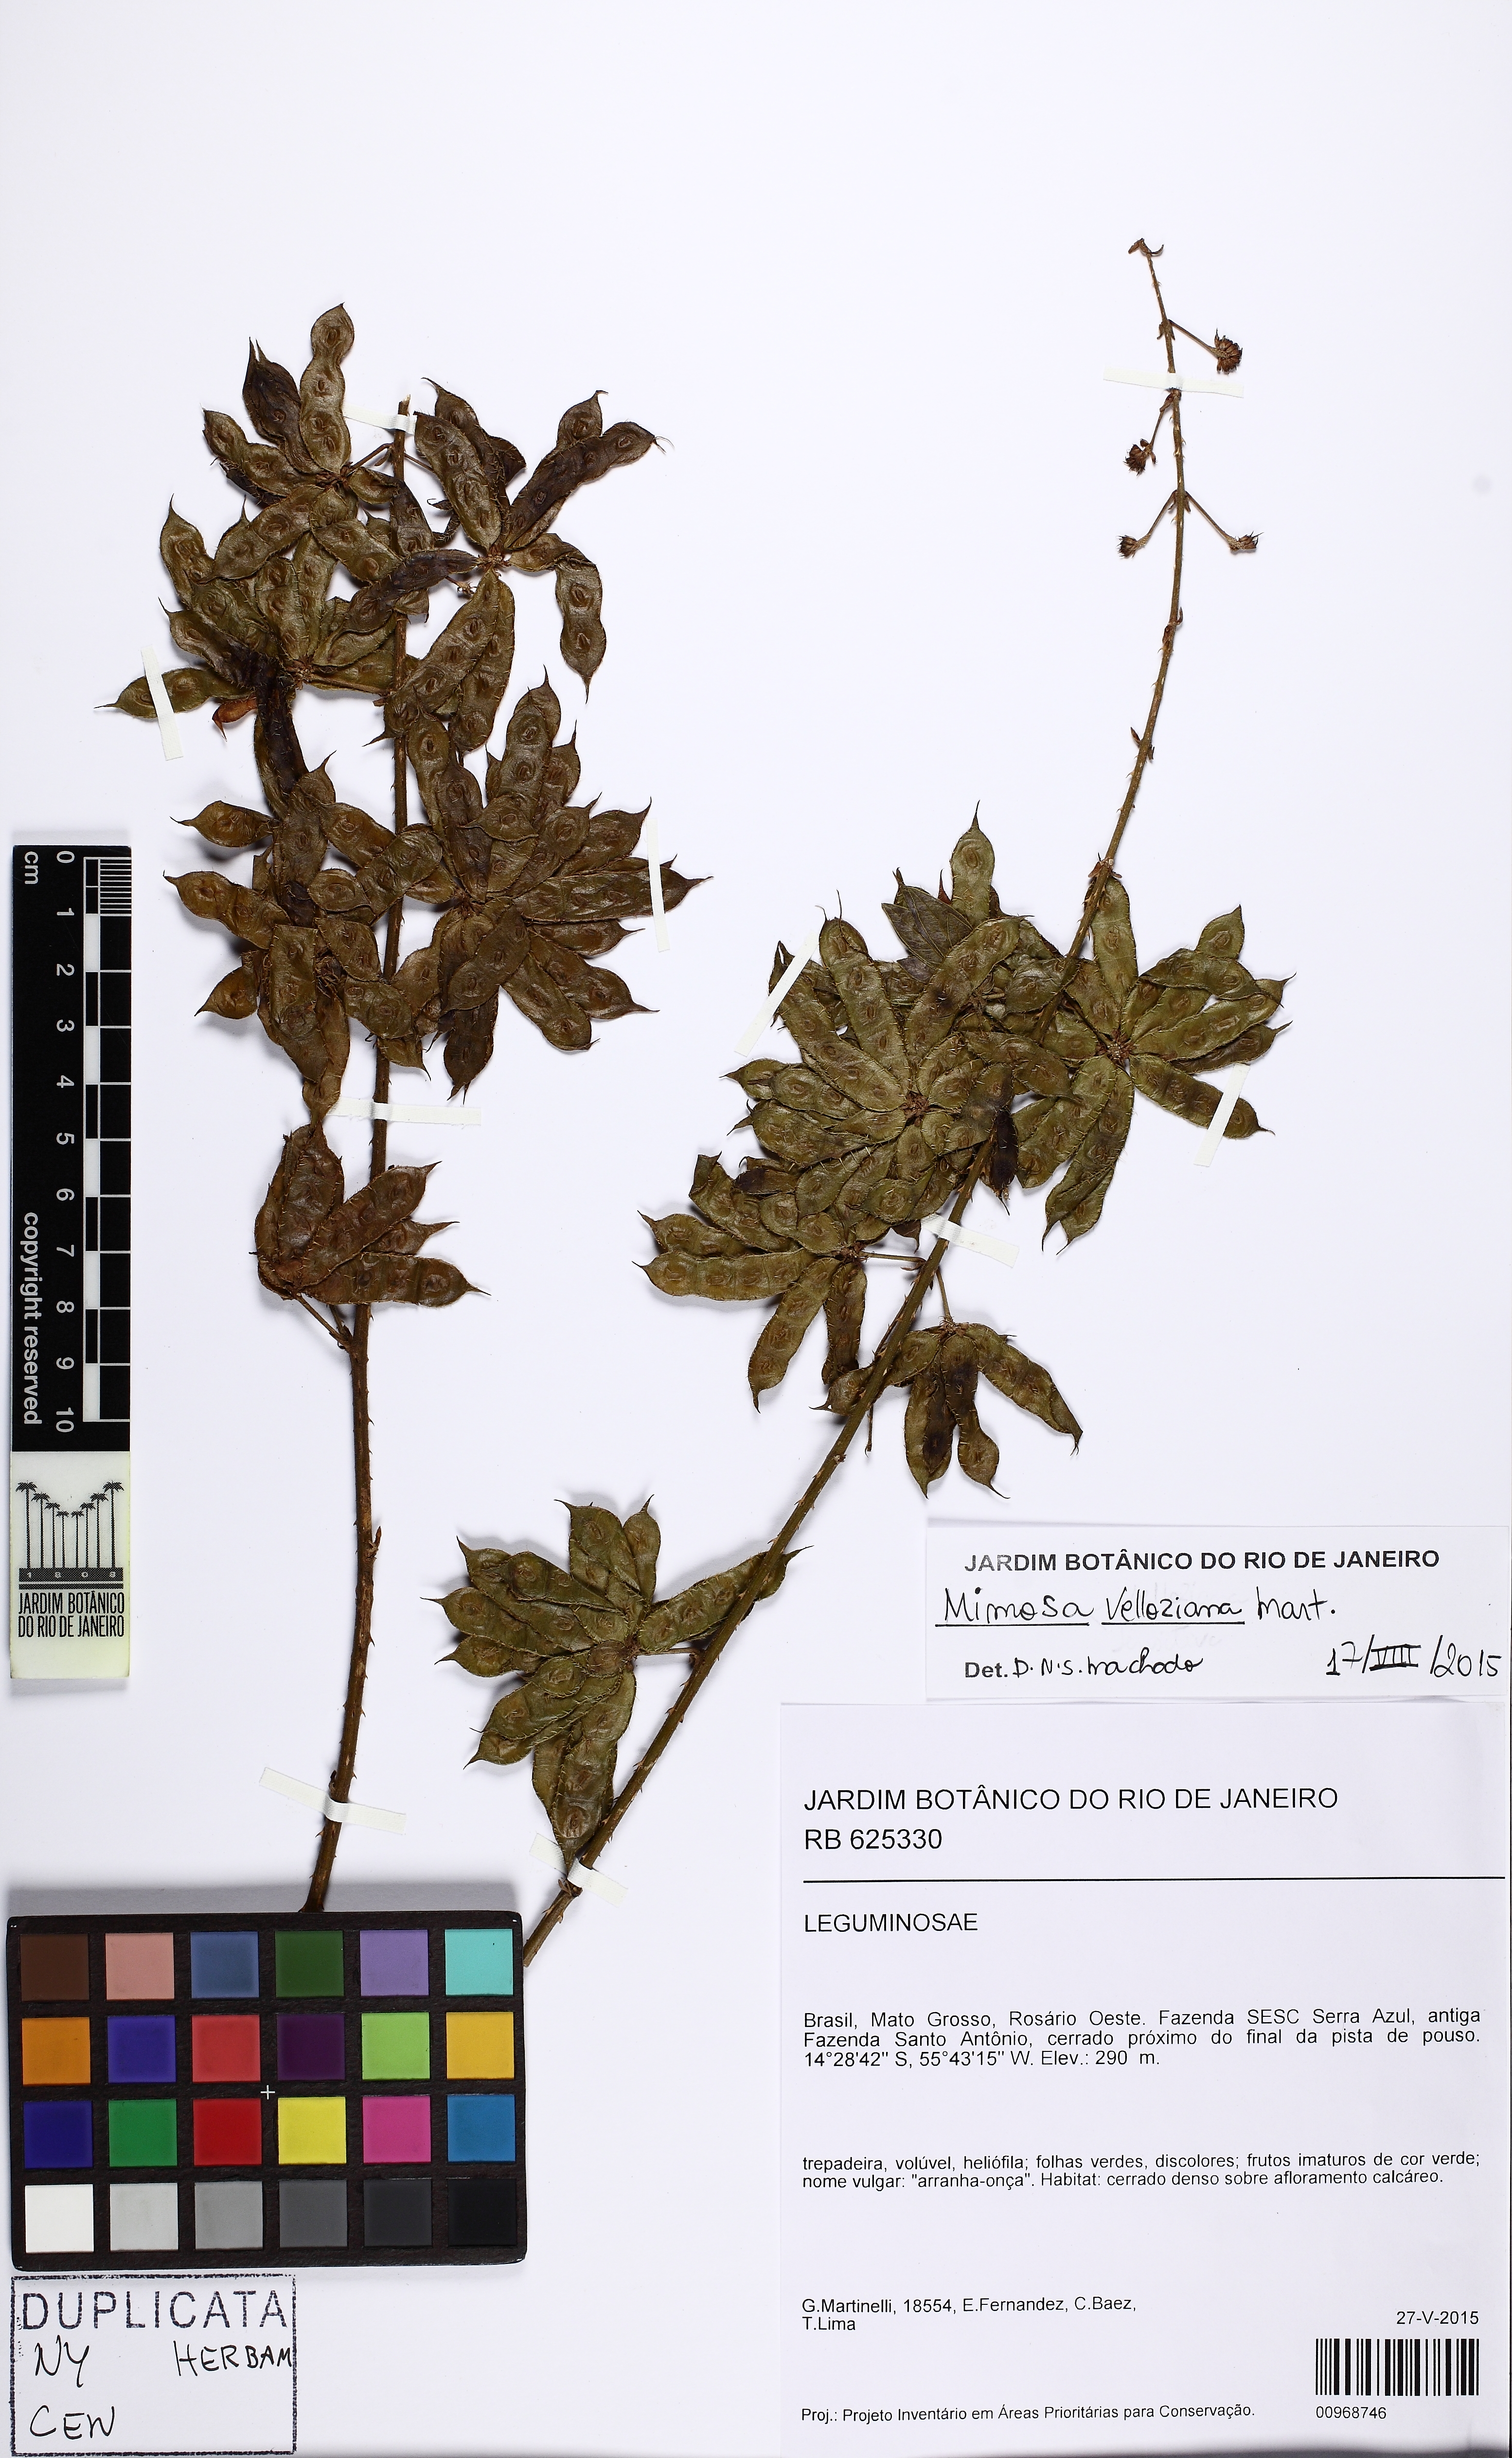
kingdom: Plantae
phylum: Tracheophyta
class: Magnoliopsida
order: Fabales
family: Fabaceae
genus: Mimosa
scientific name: Mimosa velloziana
